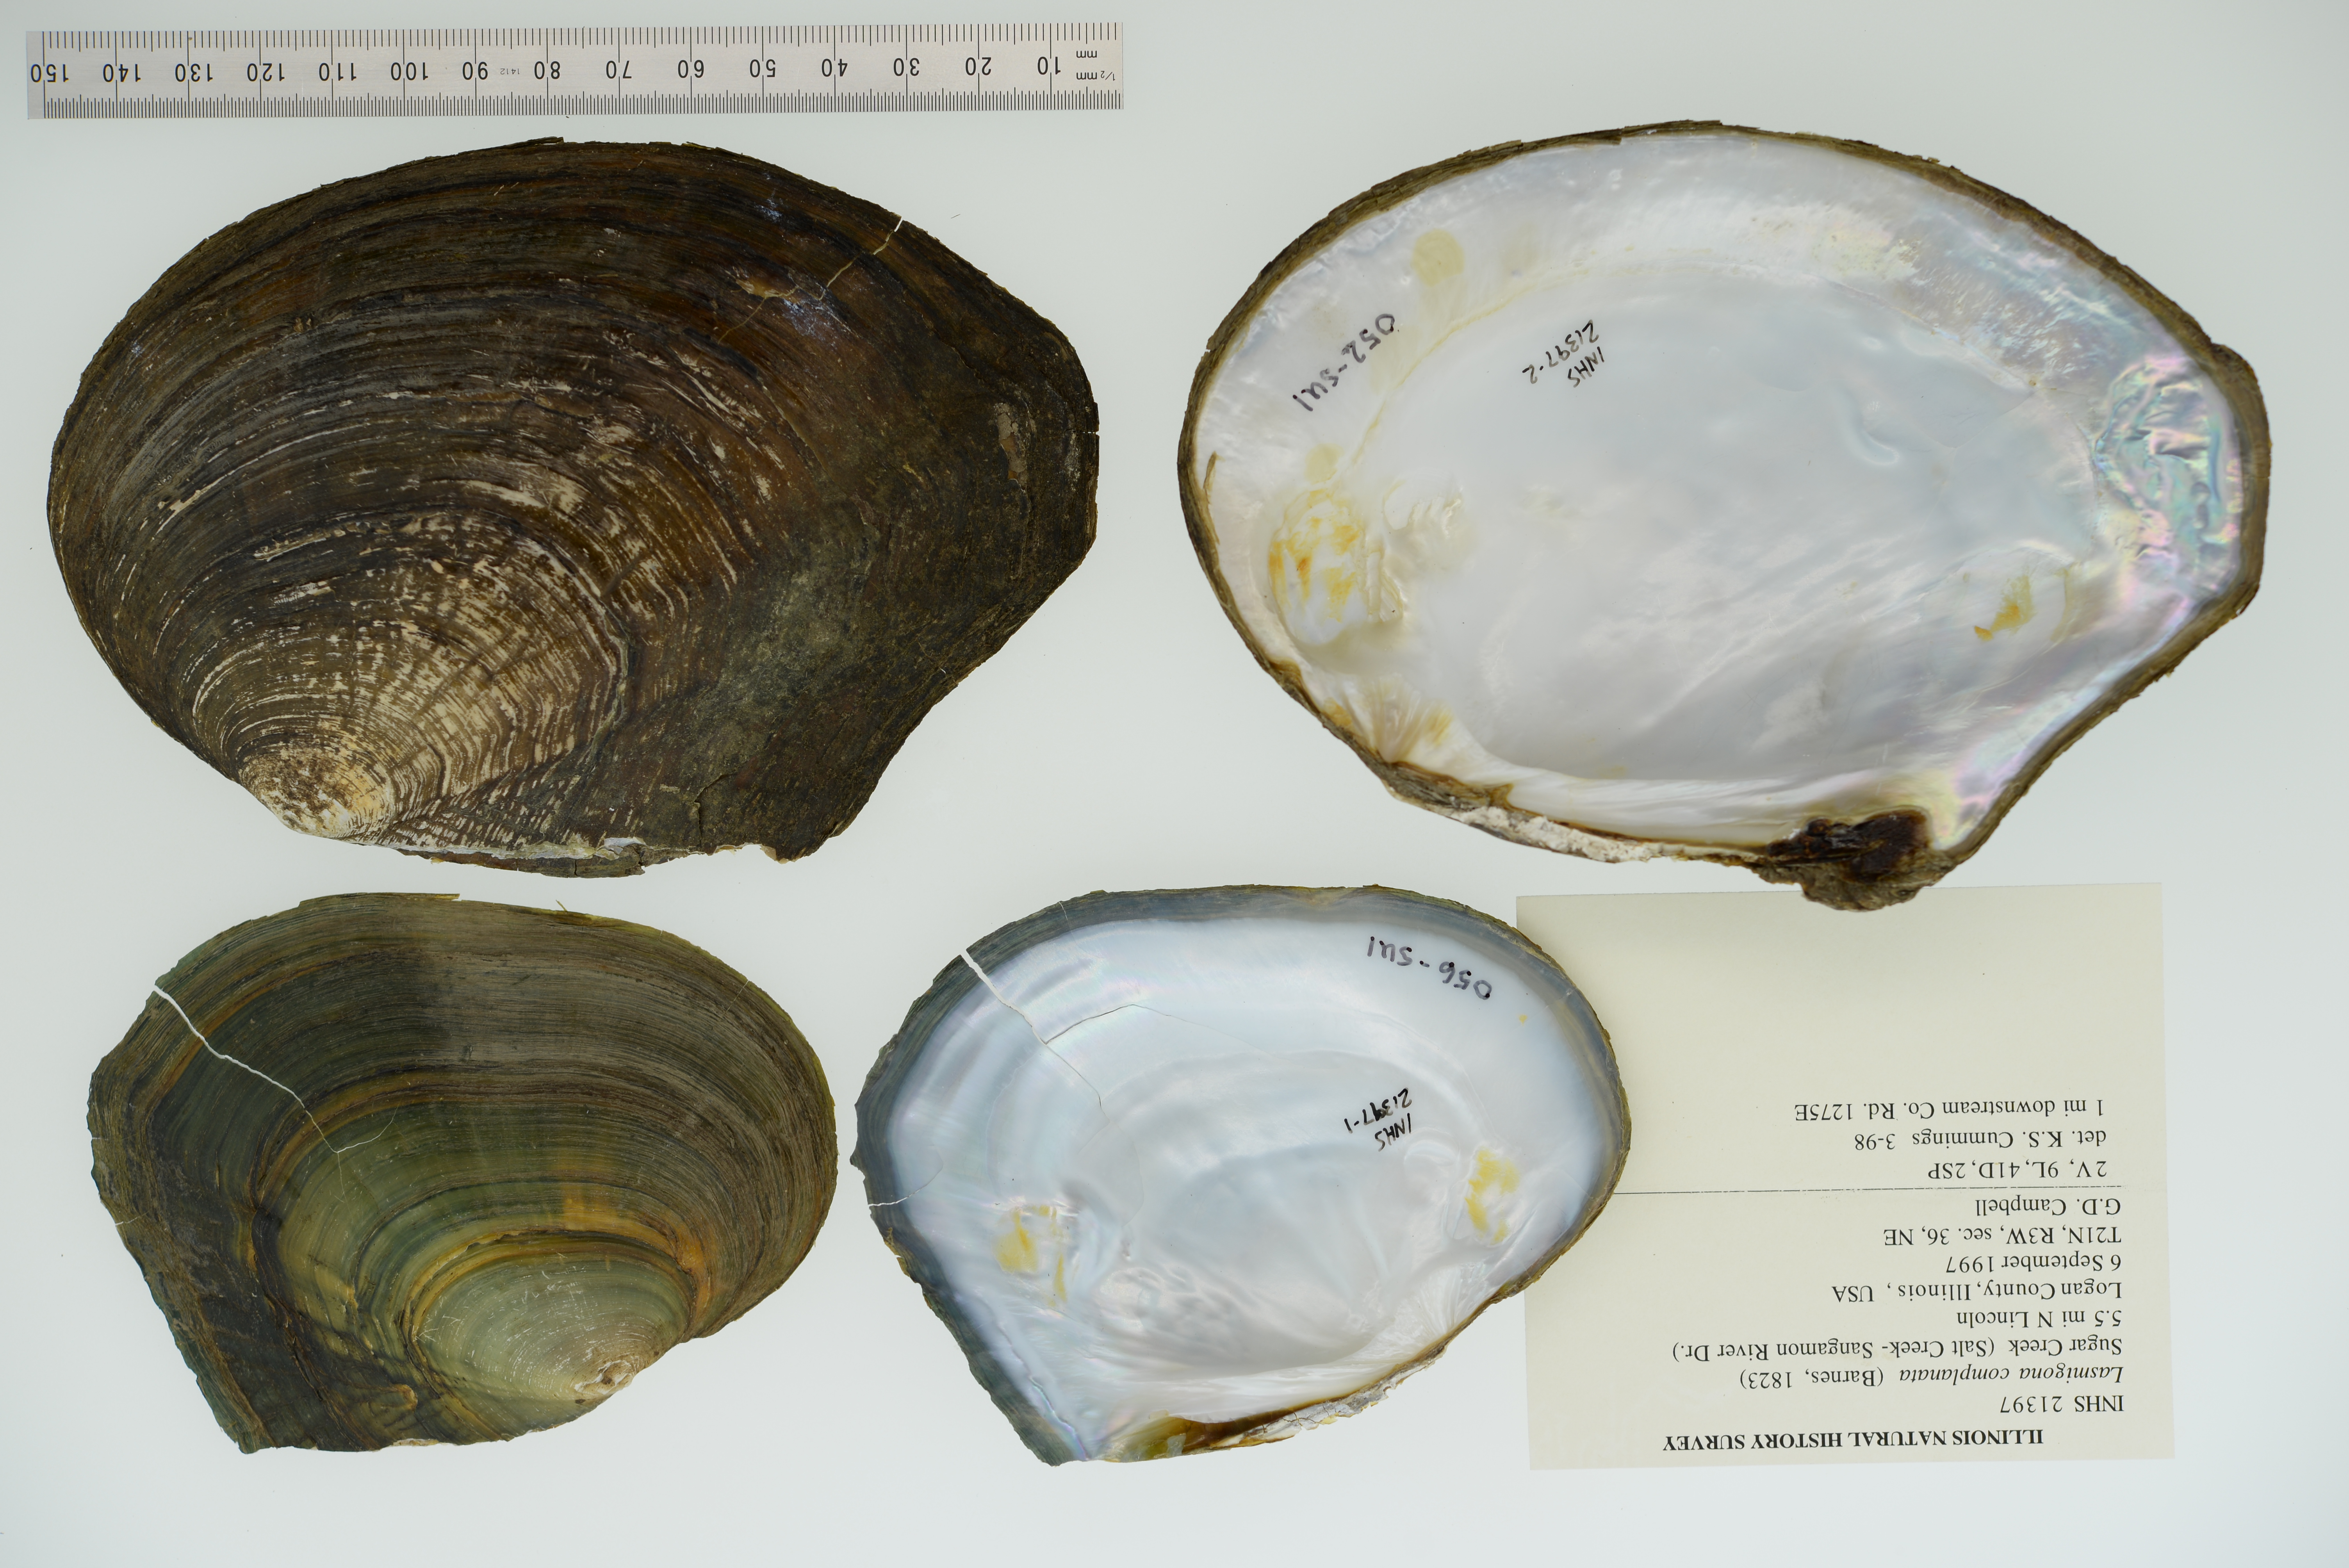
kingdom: Animalia
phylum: Mollusca
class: Bivalvia
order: Unionida
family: Unionidae
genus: Lasmigona
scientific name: Lasmigona complanata
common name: White heelsplitter
